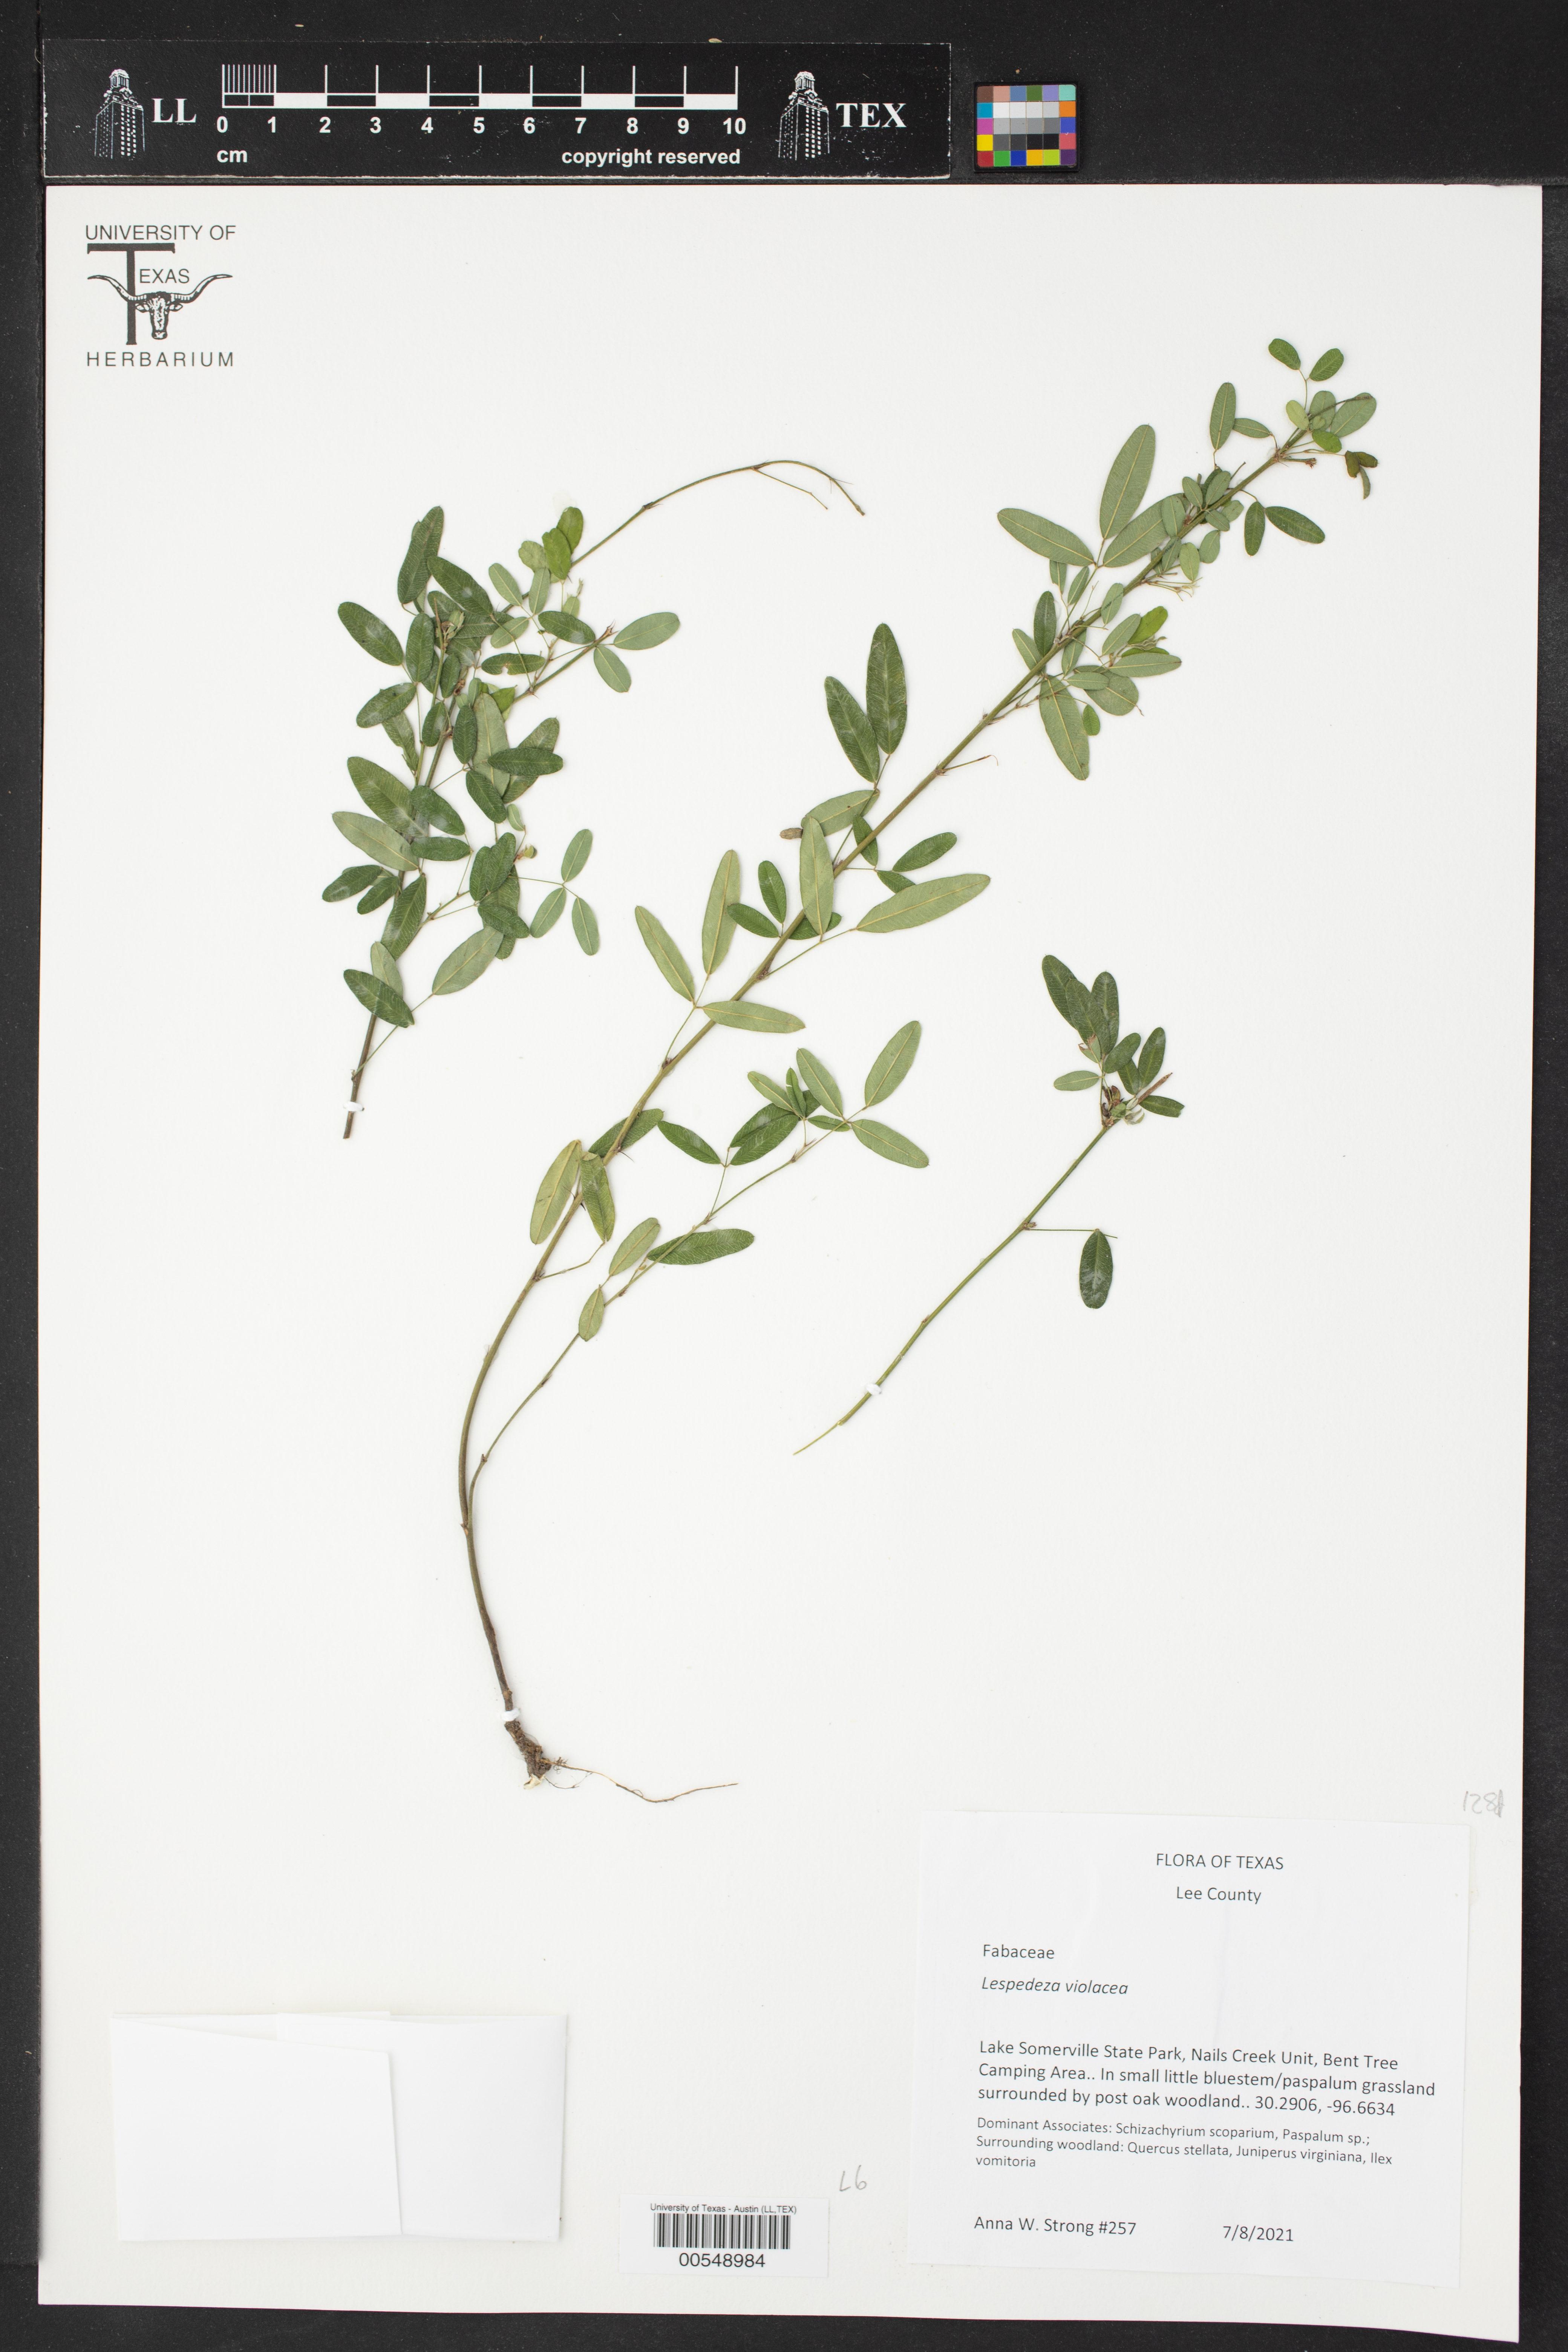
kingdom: Plantae
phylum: Tracheophyta
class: Magnoliopsida
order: Fabales
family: Fabaceae
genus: Lespedeza
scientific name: Lespedeza violacea
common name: Wand bush-clover
